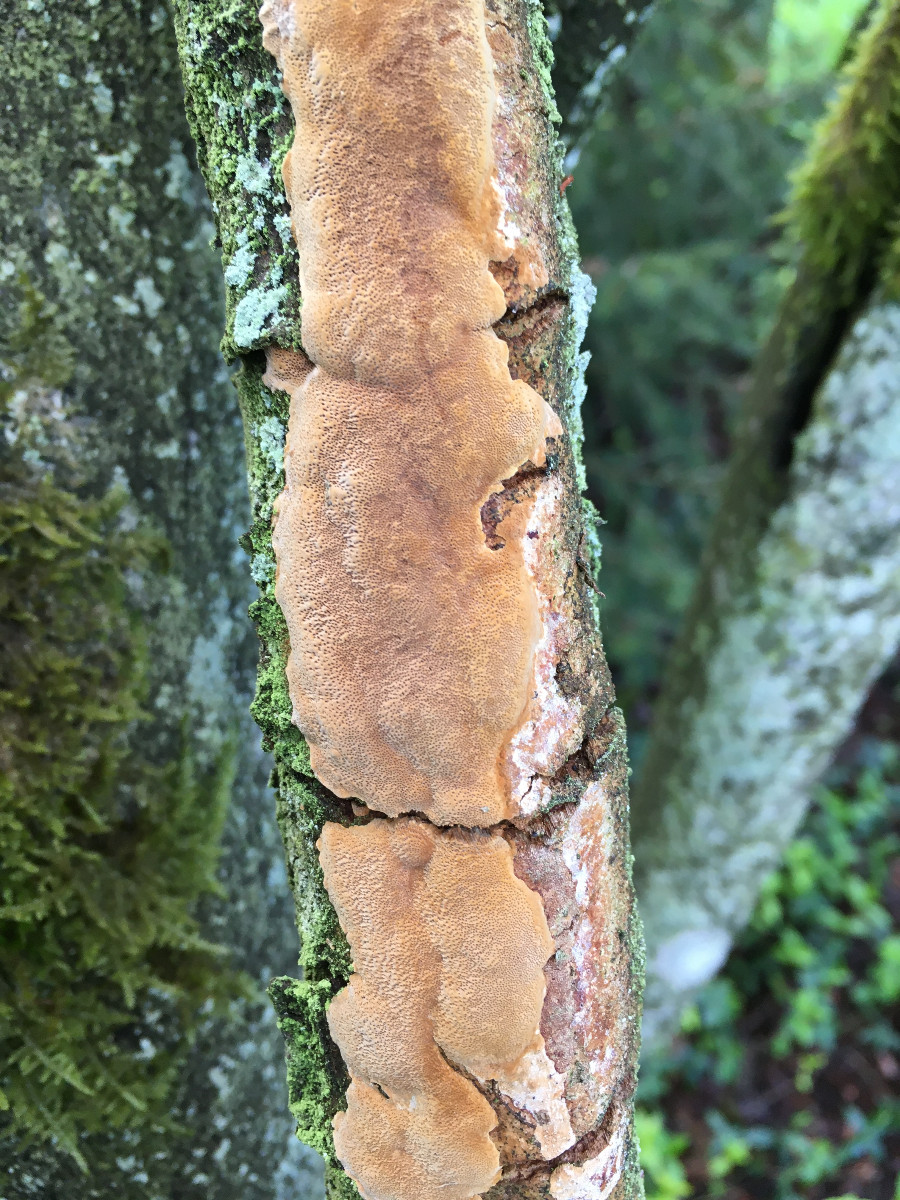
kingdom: Fungi
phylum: Basidiomycota
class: Agaricomycetes
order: Hymenochaetales
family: Hymenochaetaceae
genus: Fuscoporia
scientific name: Fuscoporia ferrea
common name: skorpe-ildporesvamp
